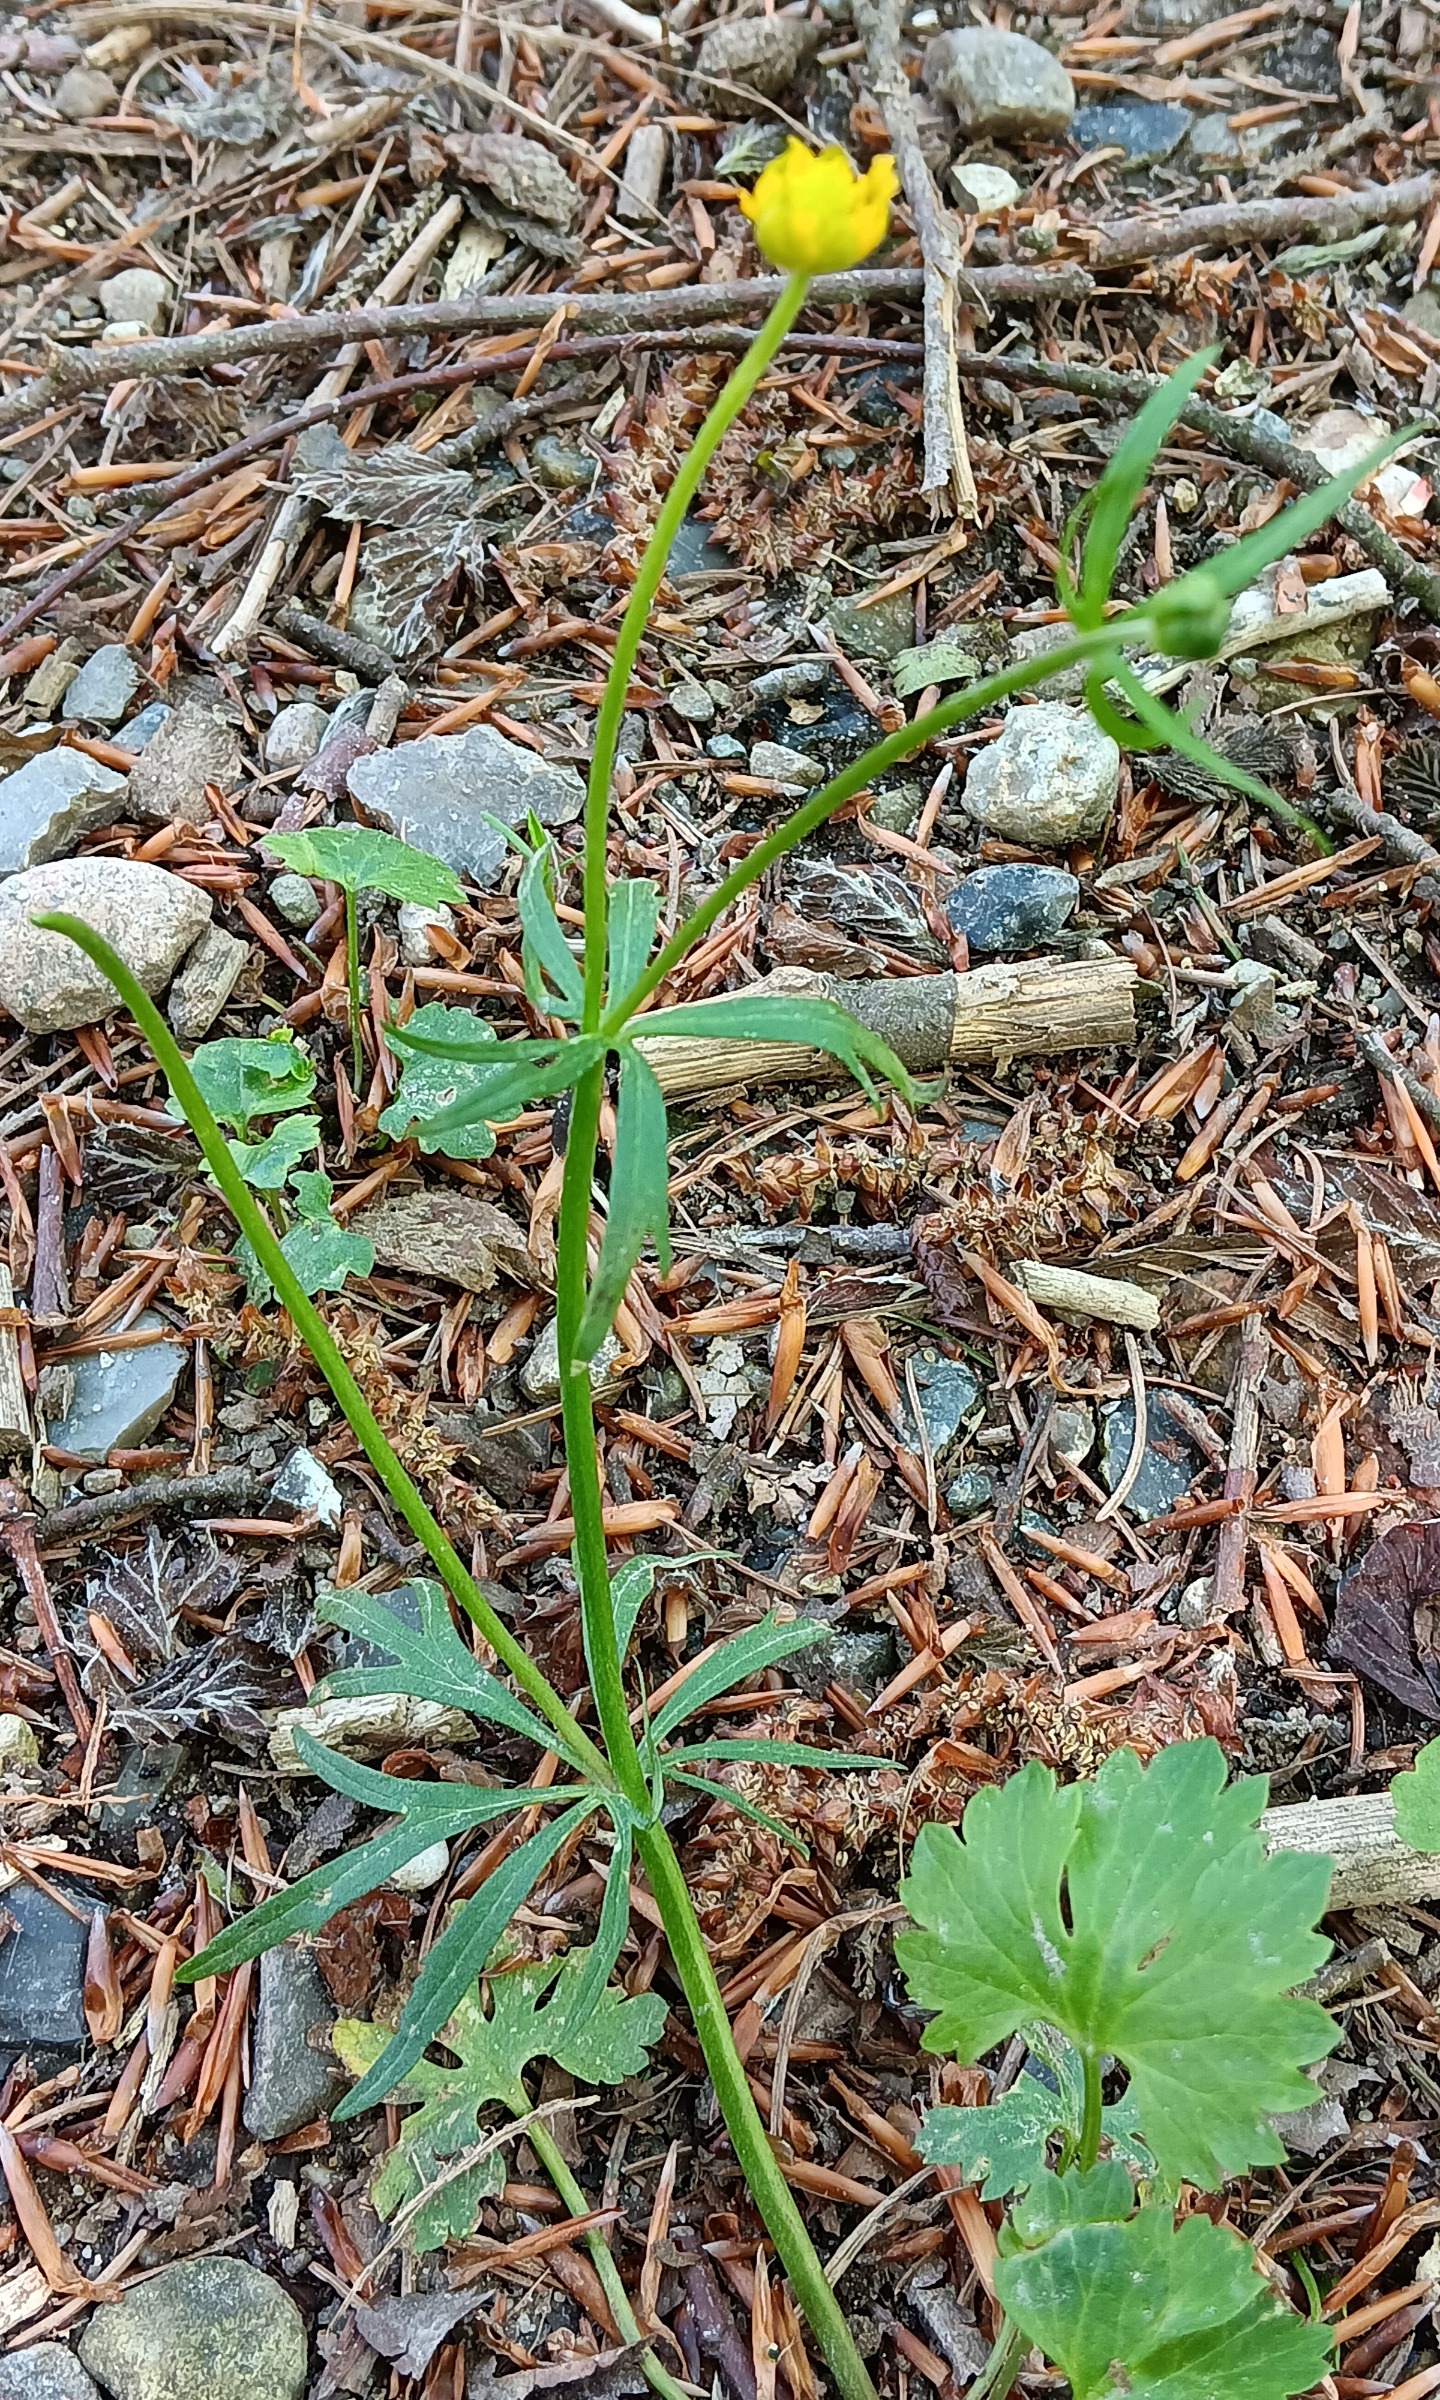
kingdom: Plantae
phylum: Tracheophyta
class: Magnoliopsida
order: Ranunculales
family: Ranunculaceae
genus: Ranunculus
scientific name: Ranunculus auricomus
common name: Nyrebladet ranunkel
